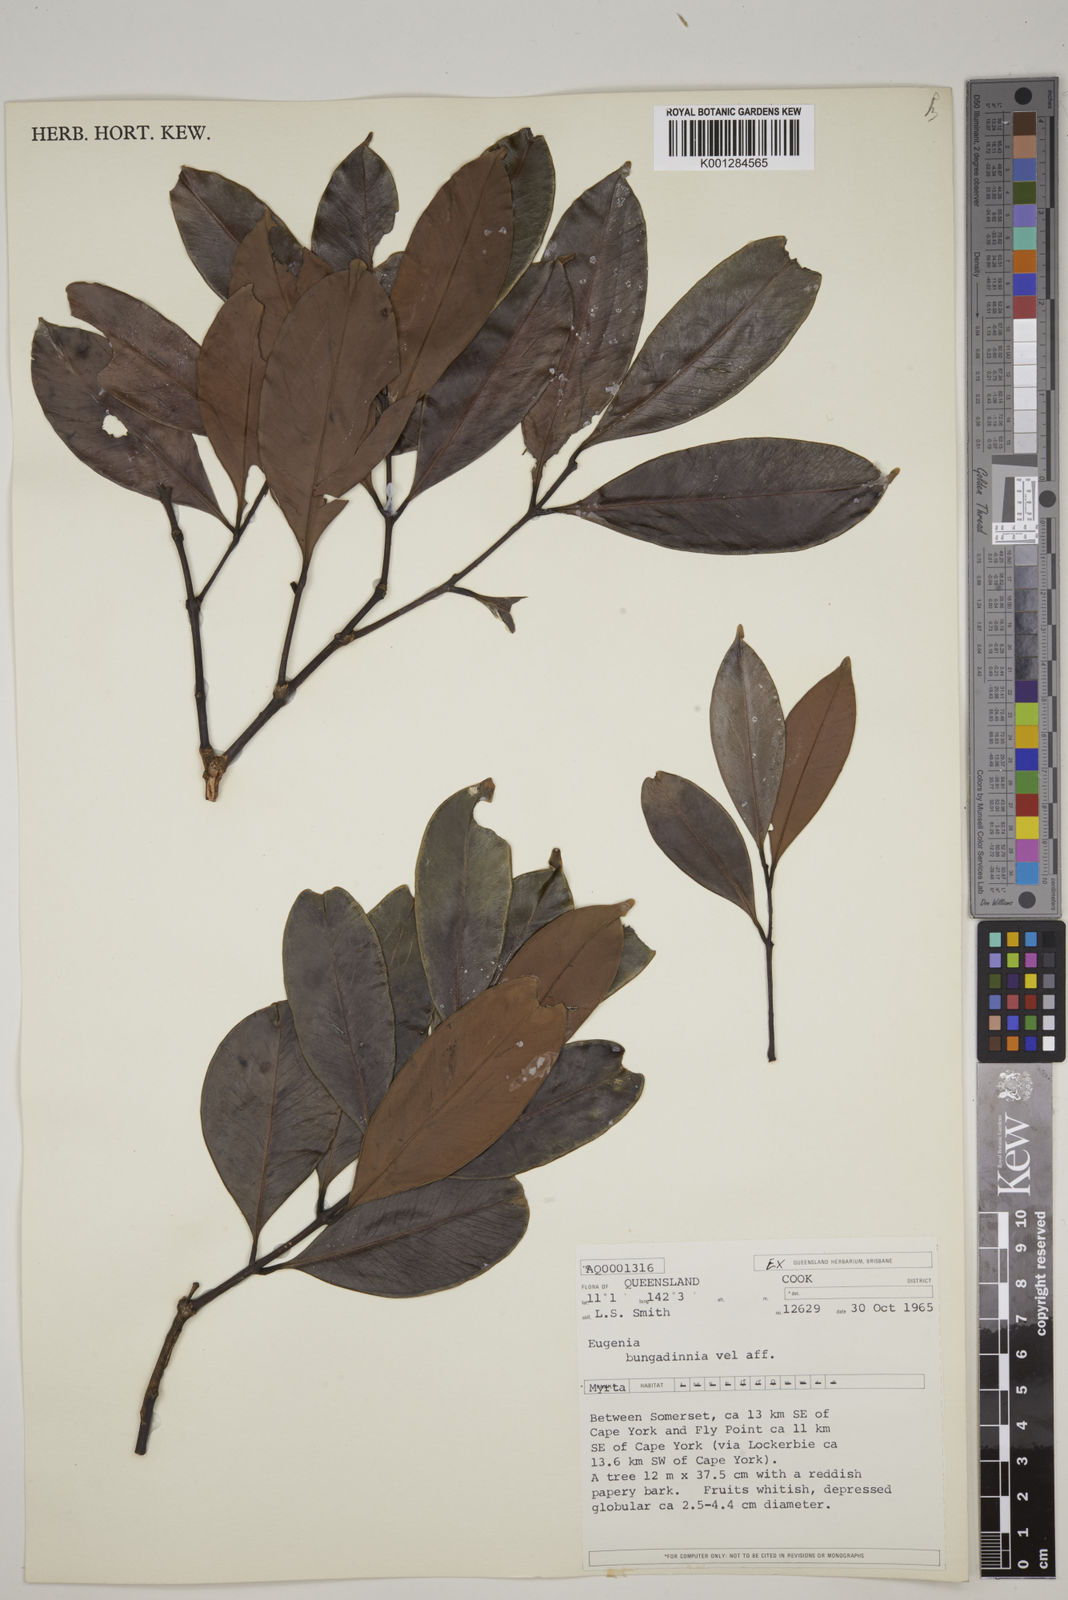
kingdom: Plantae
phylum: Tracheophyta
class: Magnoliopsida
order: Myrtales
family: Myrtaceae
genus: Syzygium
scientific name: Syzygium bungadinnia
